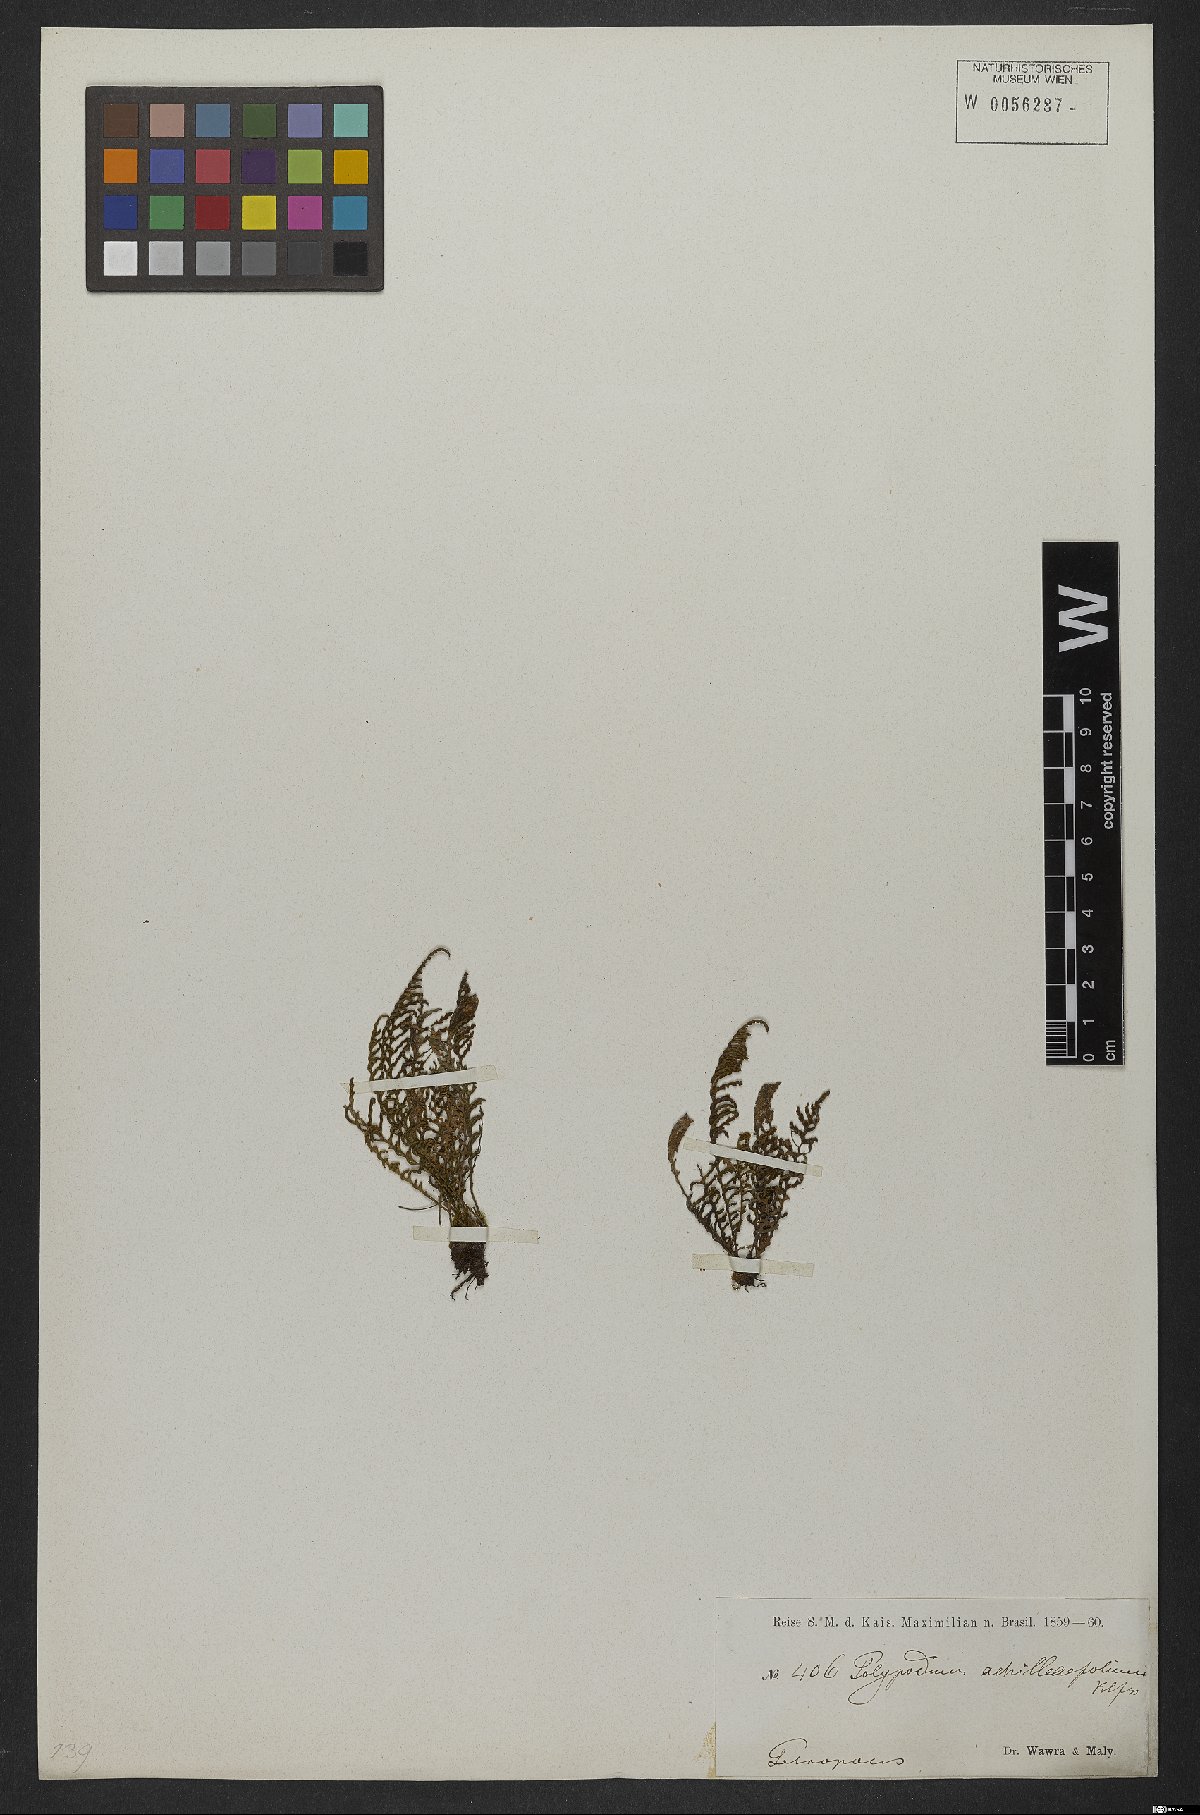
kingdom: Plantae
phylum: Tracheophyta
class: Polypodiopsida
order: Polypodiales
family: Polypodiaceae
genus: Moranopteris
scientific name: Moranopteris achilleifolia
